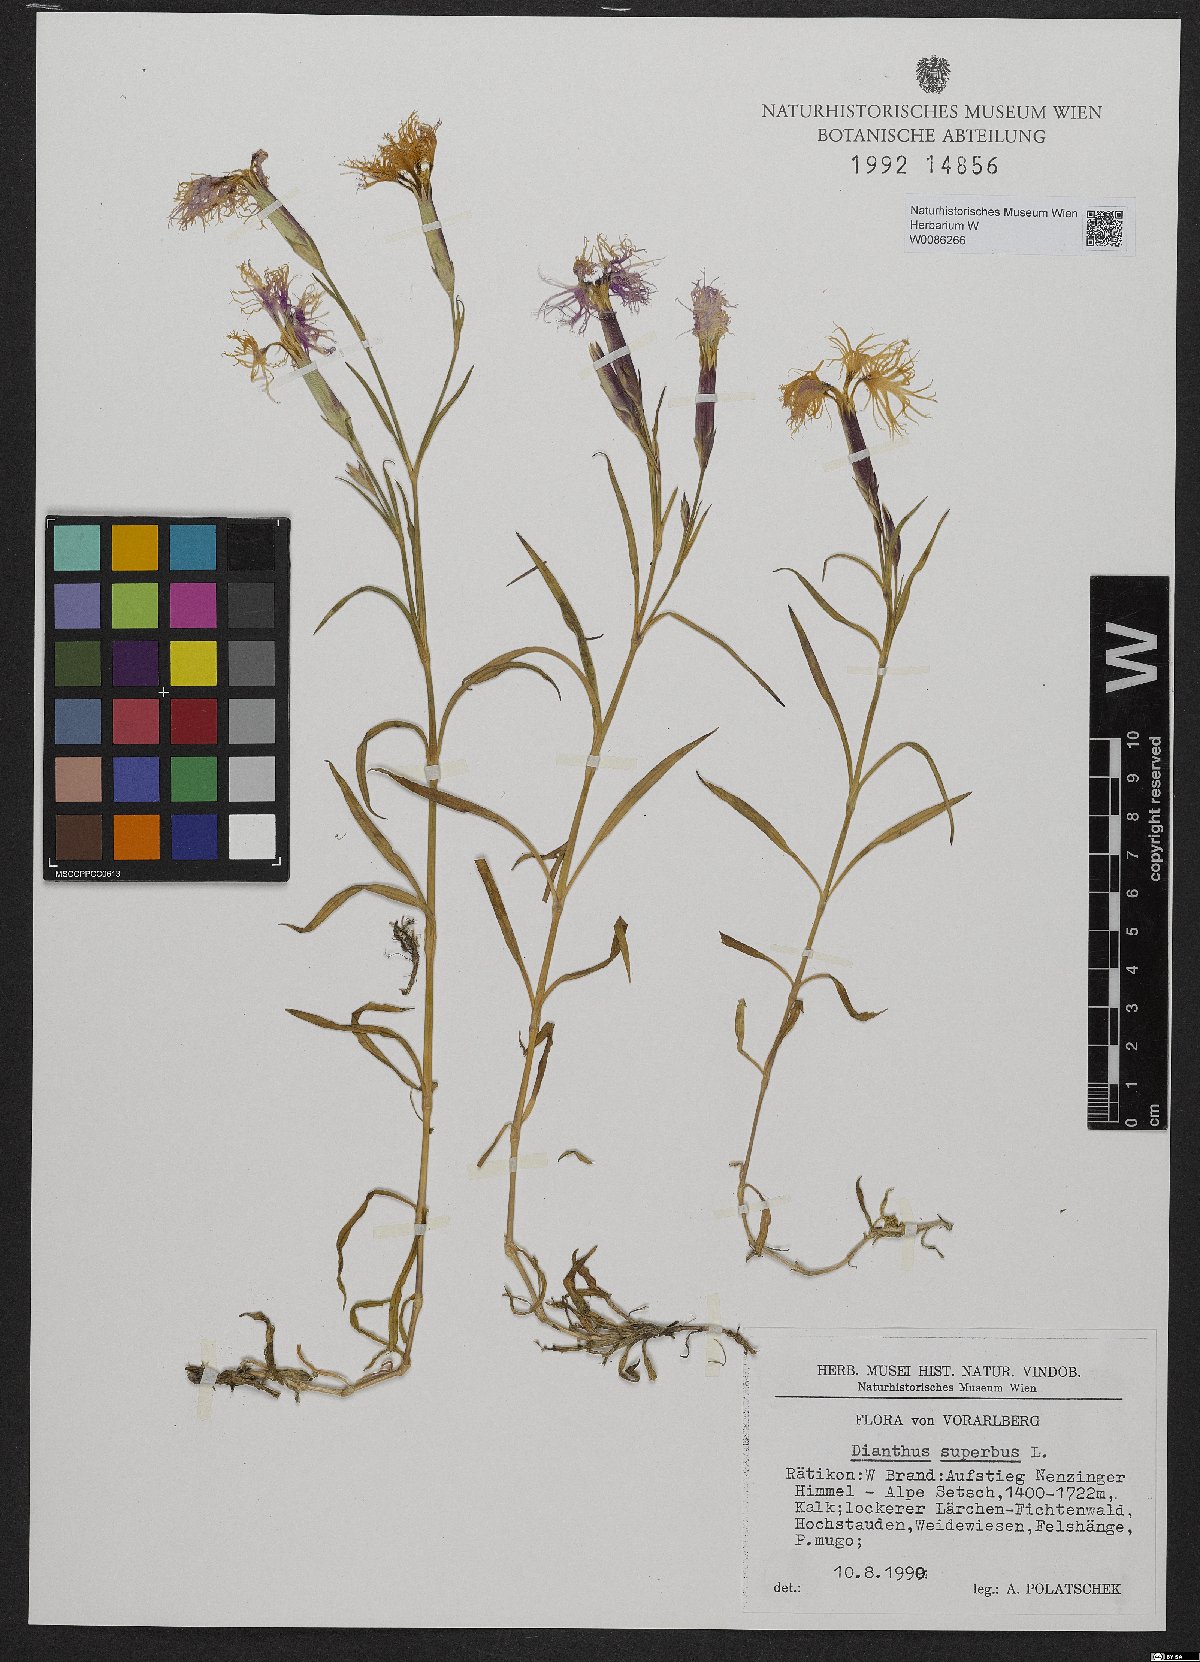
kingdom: Plantae
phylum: Tracheophyta
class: Magnoliopsida
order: Caryophyllales
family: Caryophyllaceae
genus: Dianthus
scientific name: Dianthus superbus
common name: Fringed pink
